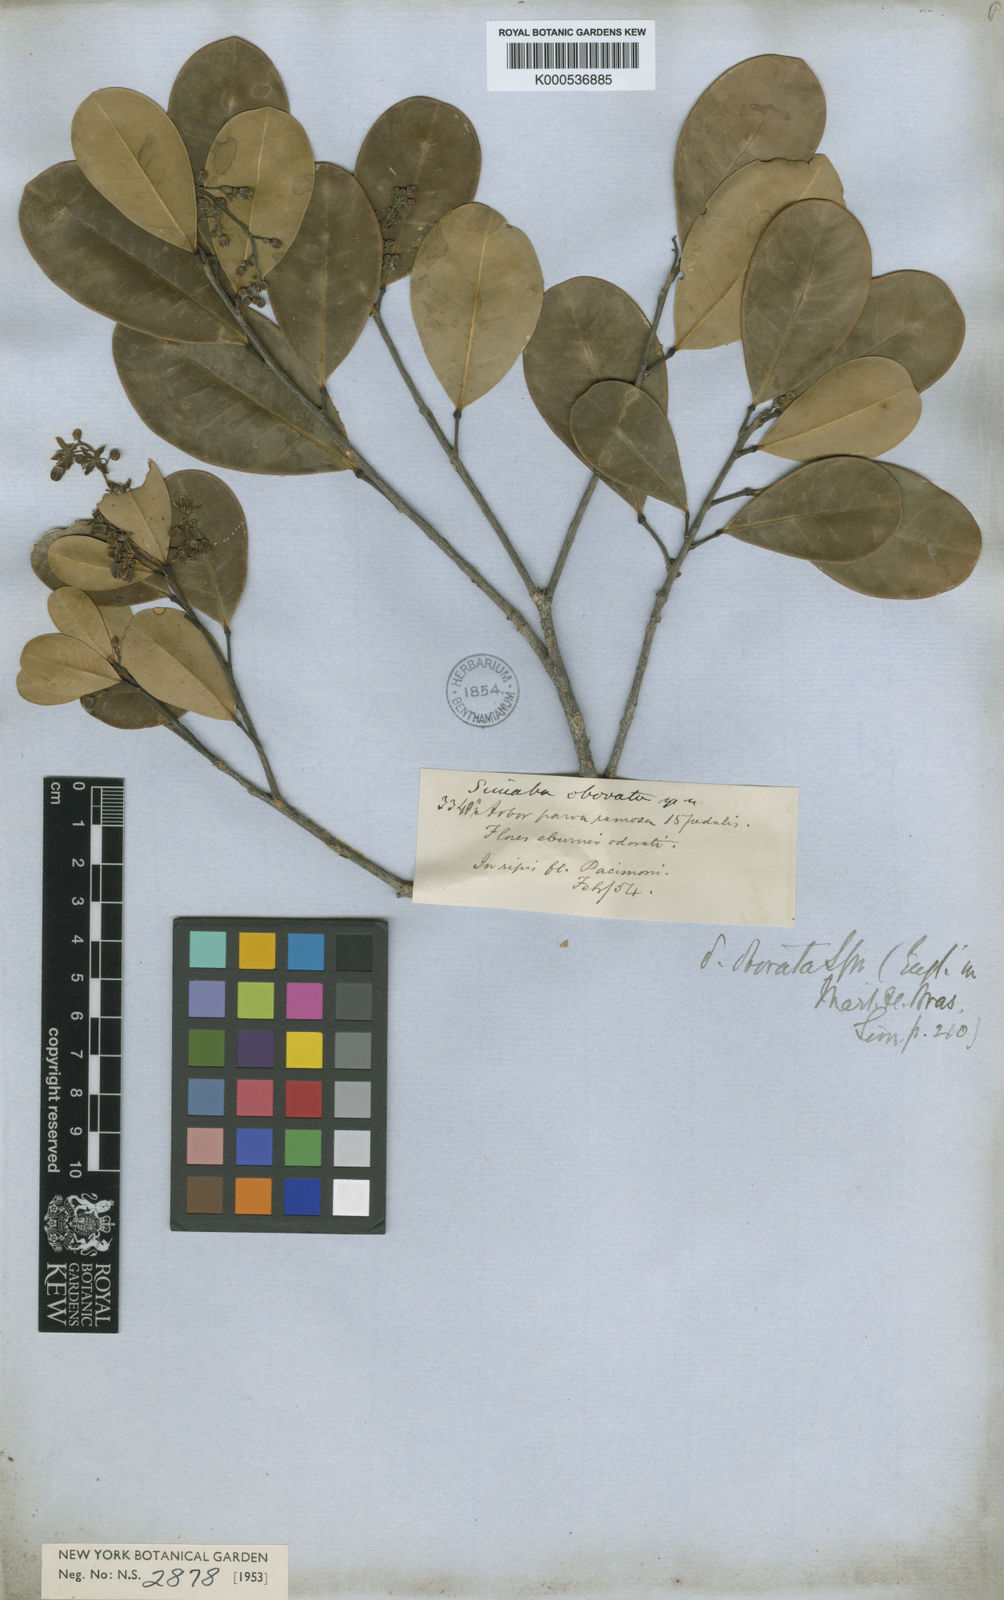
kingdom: Plantae
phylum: Tracheophyta
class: Magnoliopsida
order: Sapindales
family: Simaroubaceae
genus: Simaba
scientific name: Simaba obovata
